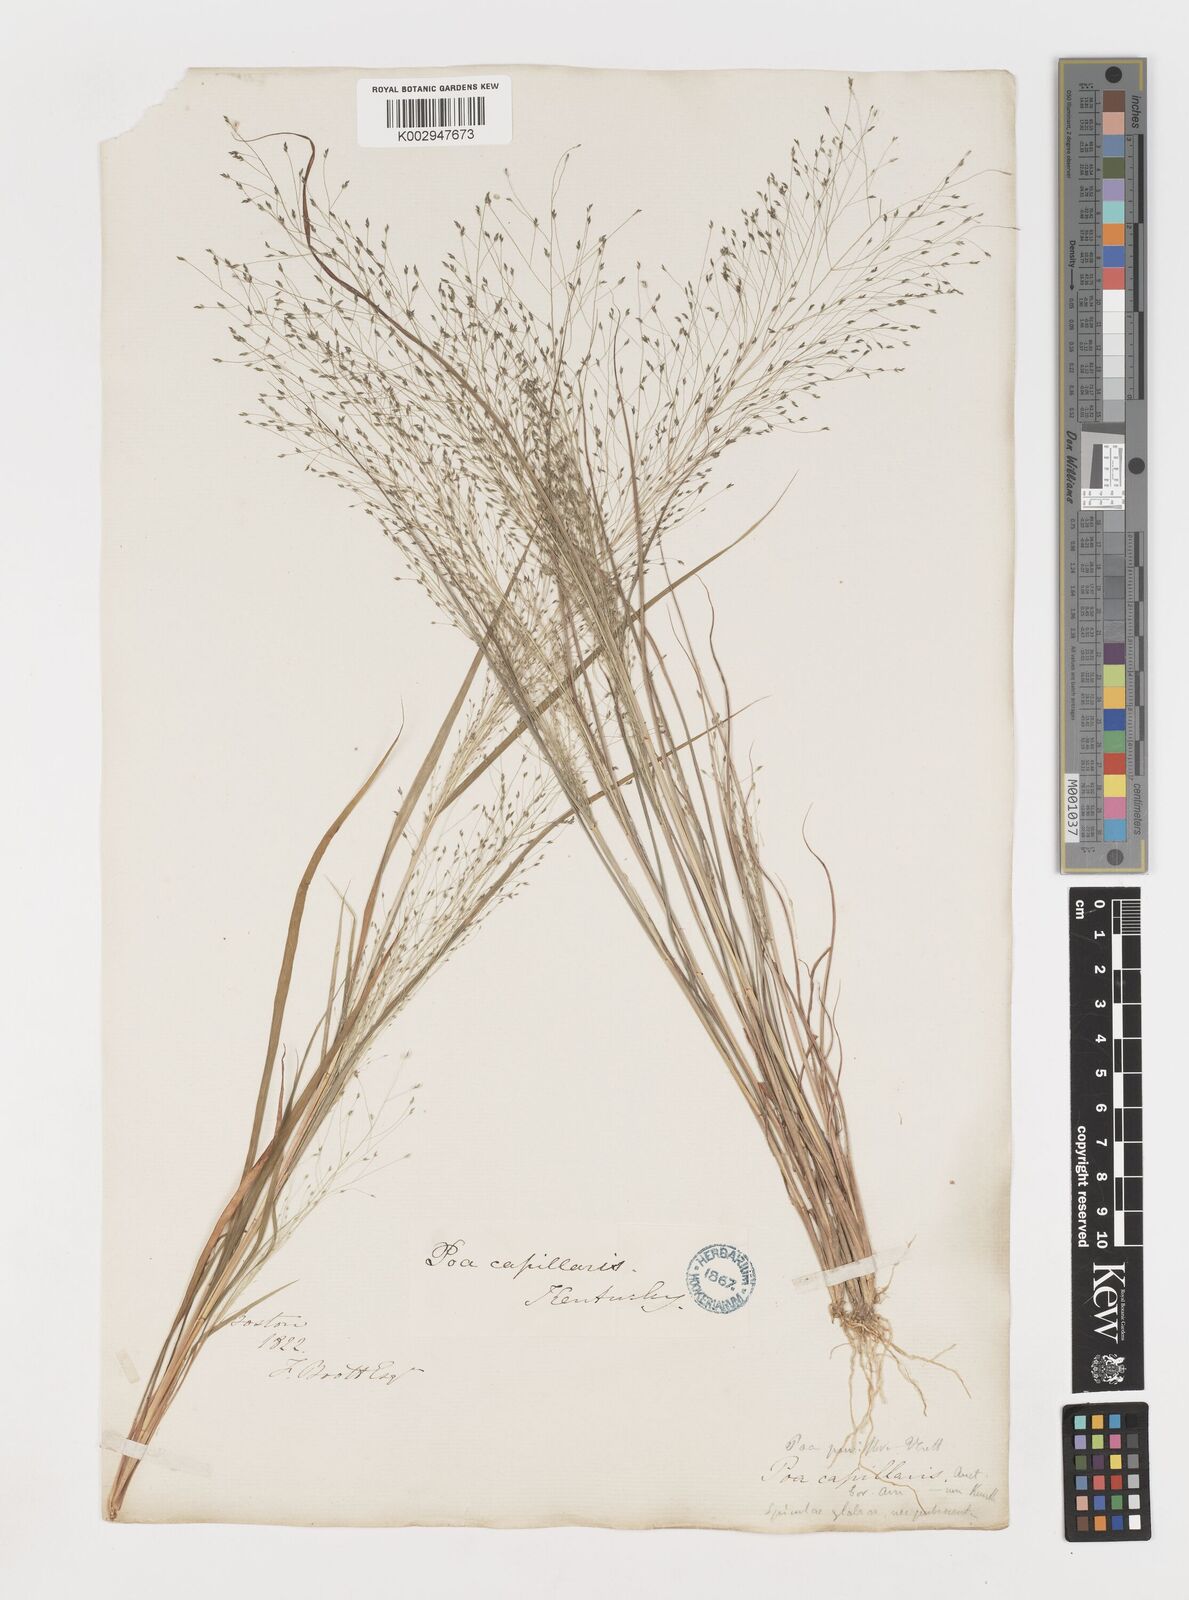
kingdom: Plantae
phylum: Tracheophyta
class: Liliopsida
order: Poales
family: Poaceae
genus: Eragrostis
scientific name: Eragrostis capillaris
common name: Hair-like lovegrass
